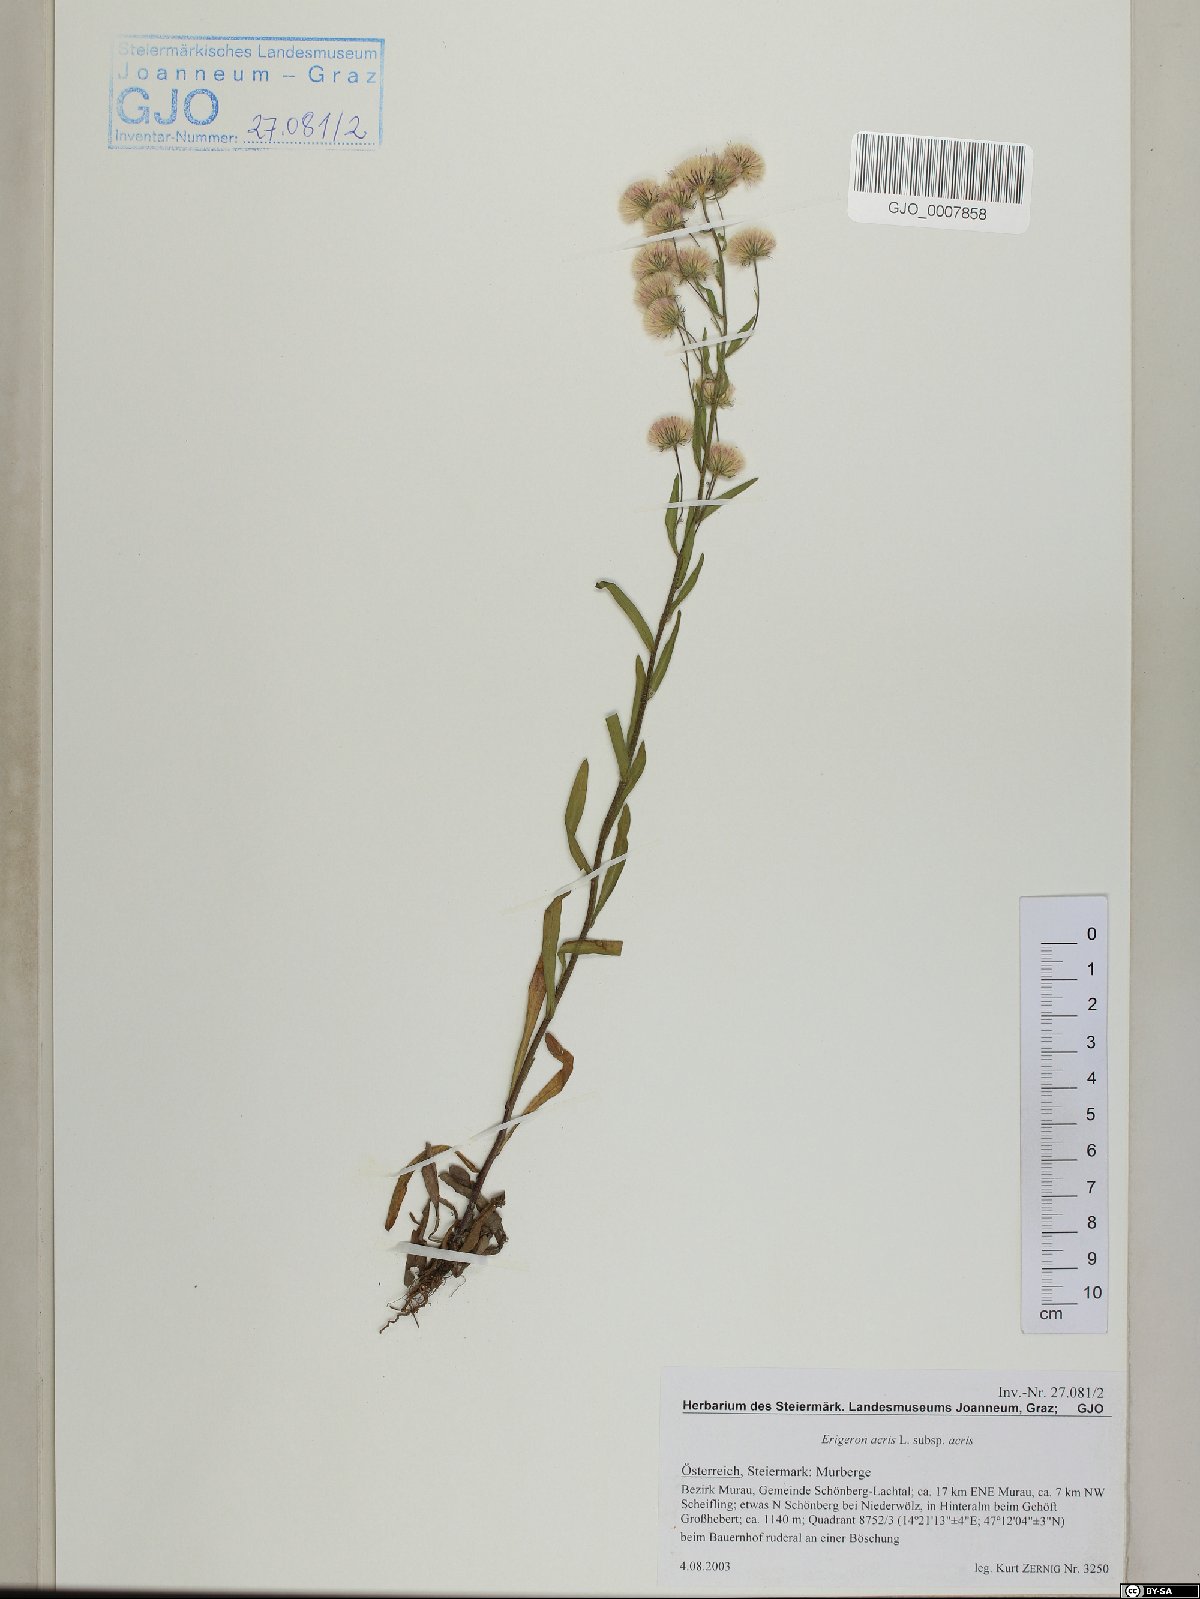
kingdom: Plantae
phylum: Tracheophyta
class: Magnoliopsida
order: Asterales
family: Asteraceae
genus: Erigeron
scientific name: Erigeron acris
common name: Blue fleabane
